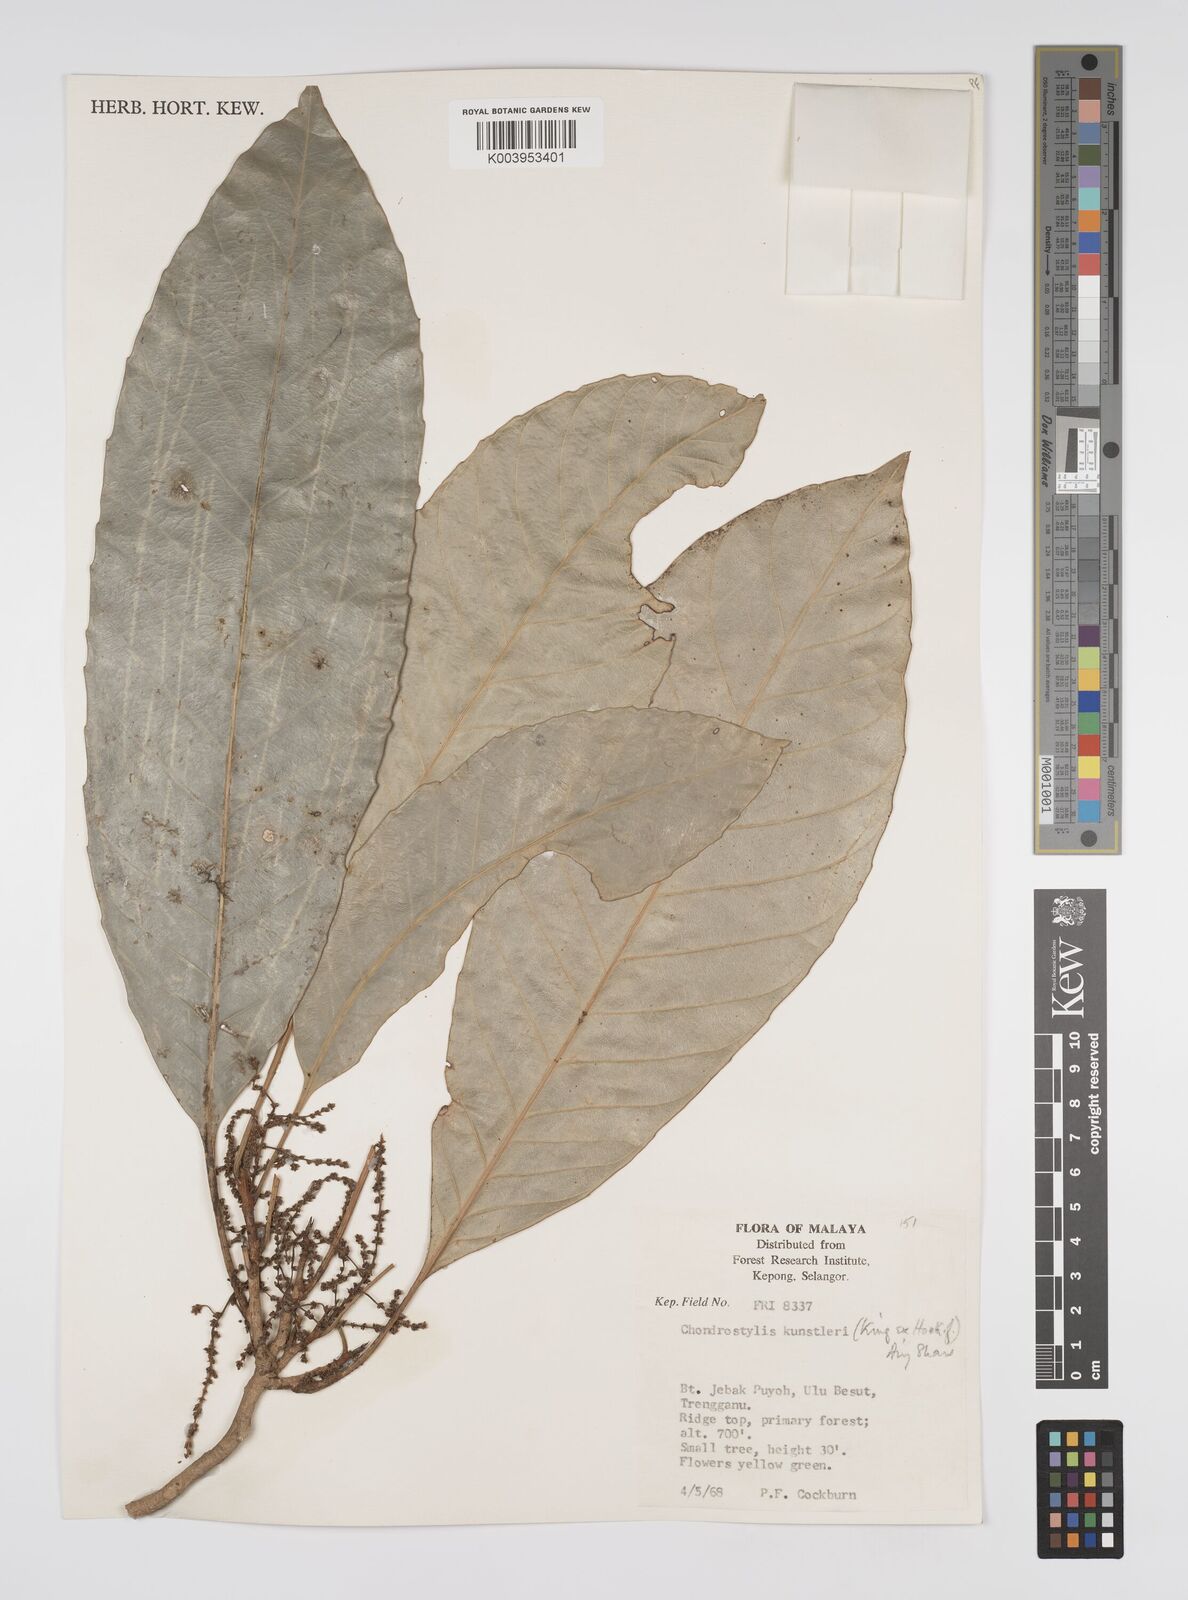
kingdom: Plantae
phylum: Tracheophyta
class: Magnoliopsida
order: Malpighiales
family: Euphorbiaceae
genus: Chondrostylis
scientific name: Chondrostylis kunstleri
